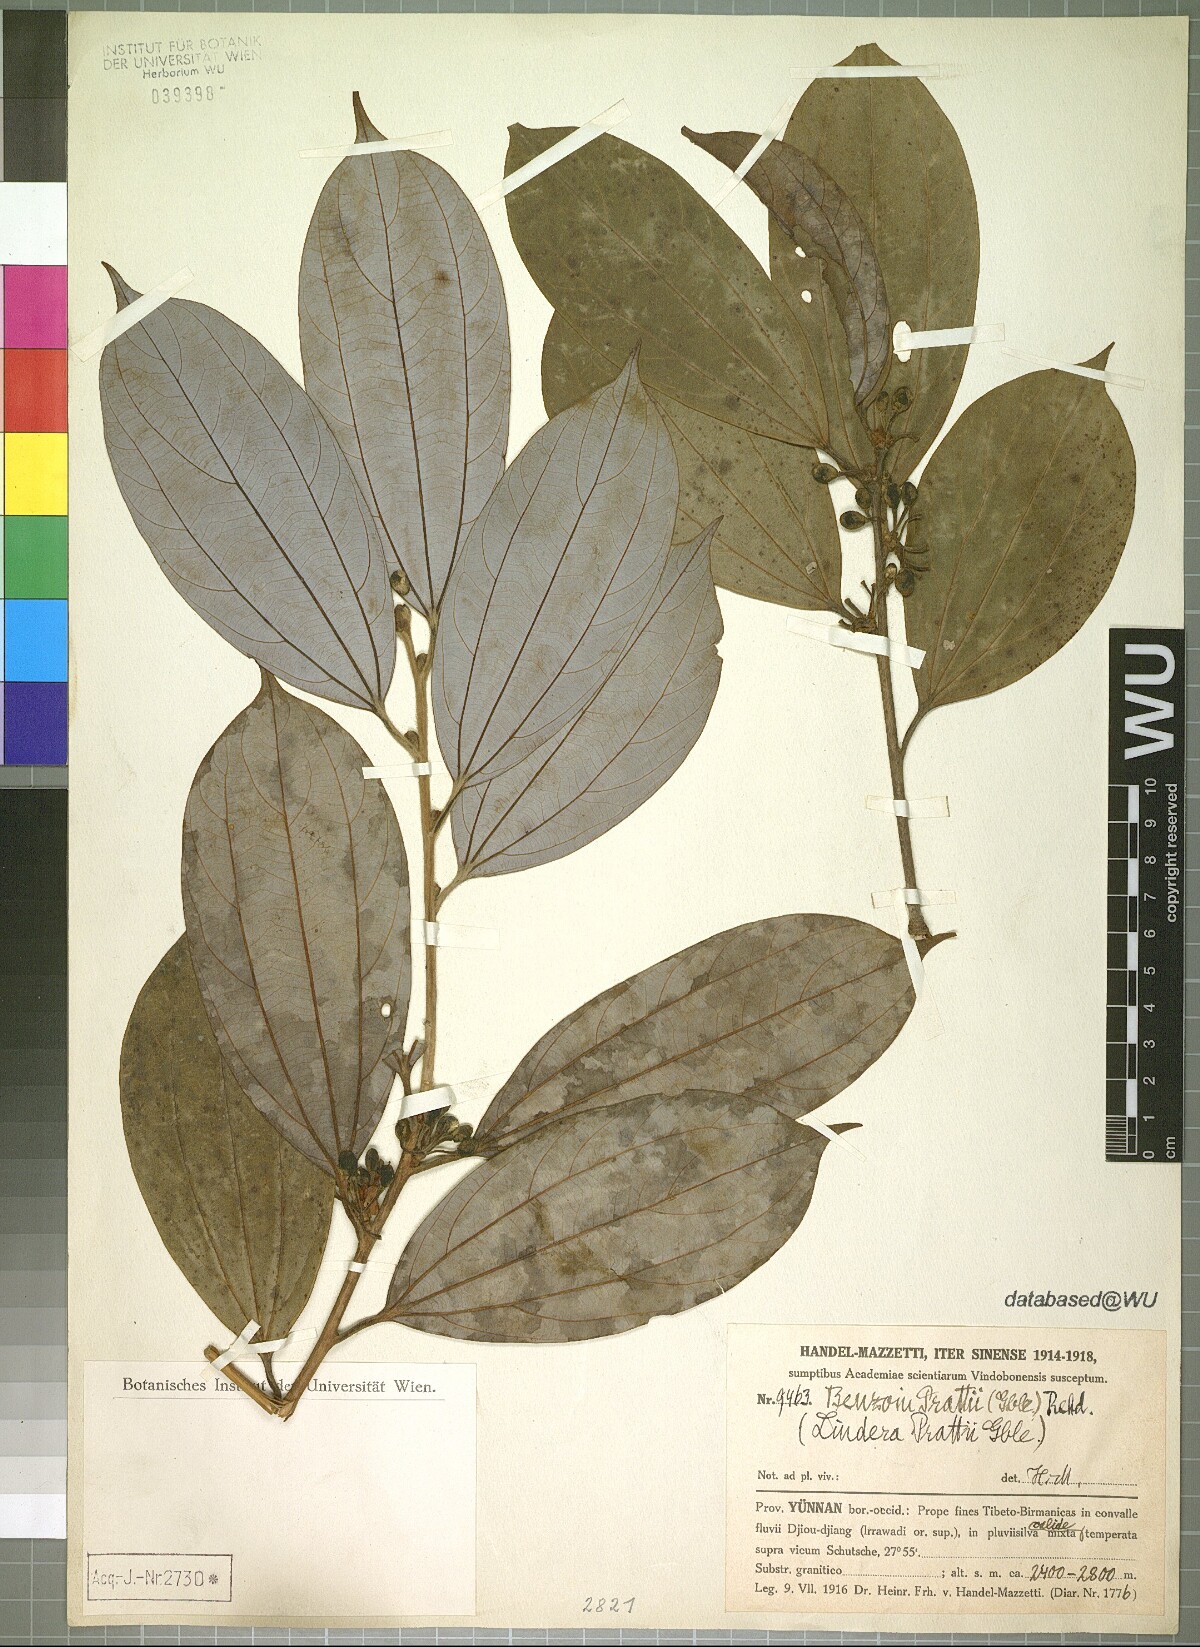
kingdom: Plantae
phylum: Tracheophyta
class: Magnoliopsida
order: Laurales
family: Lauraceae
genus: Lindera
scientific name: Lindera prattii
